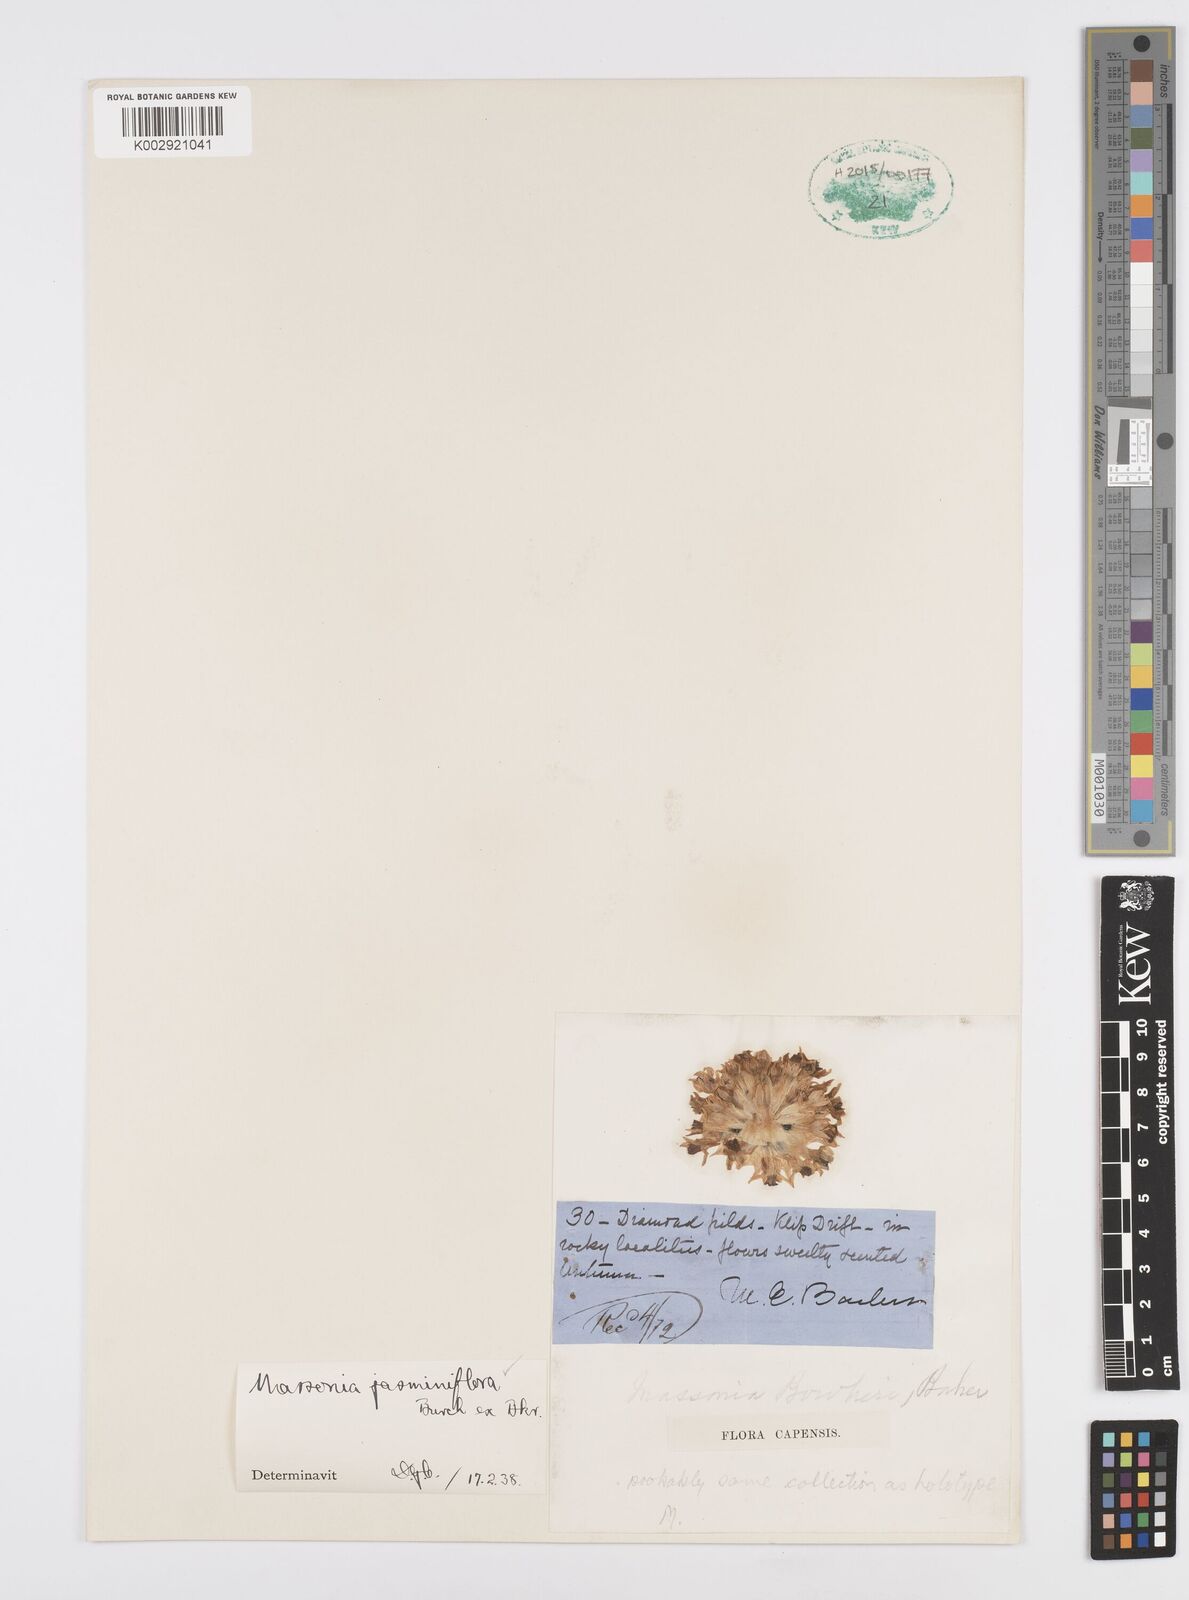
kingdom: Plantae
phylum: Tracheophyta
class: Liliopsida
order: Asparagales
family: Asparagaceae
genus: Massonia
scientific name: Massonia jasminiflora
